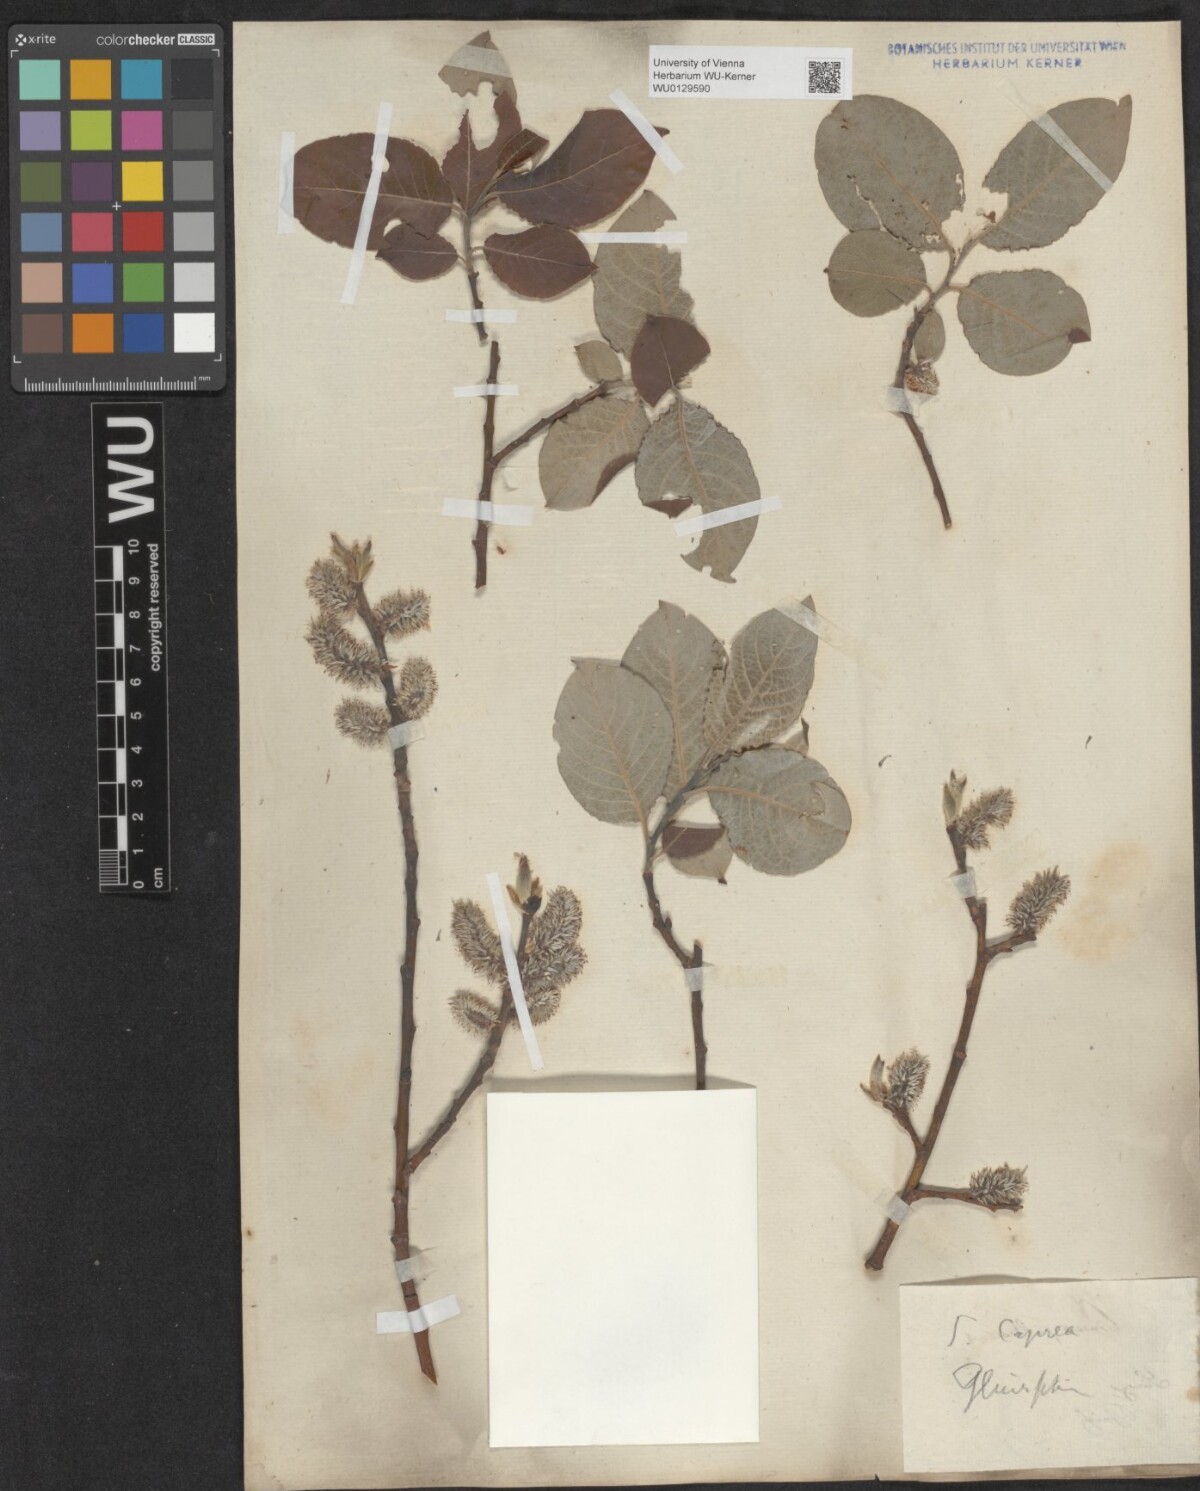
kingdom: Plantae
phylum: Tracheophyta
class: Magnoliopsida
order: Malpighiales
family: Salicaceae
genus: Salix
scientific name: Salix caprea
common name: Goat willow
